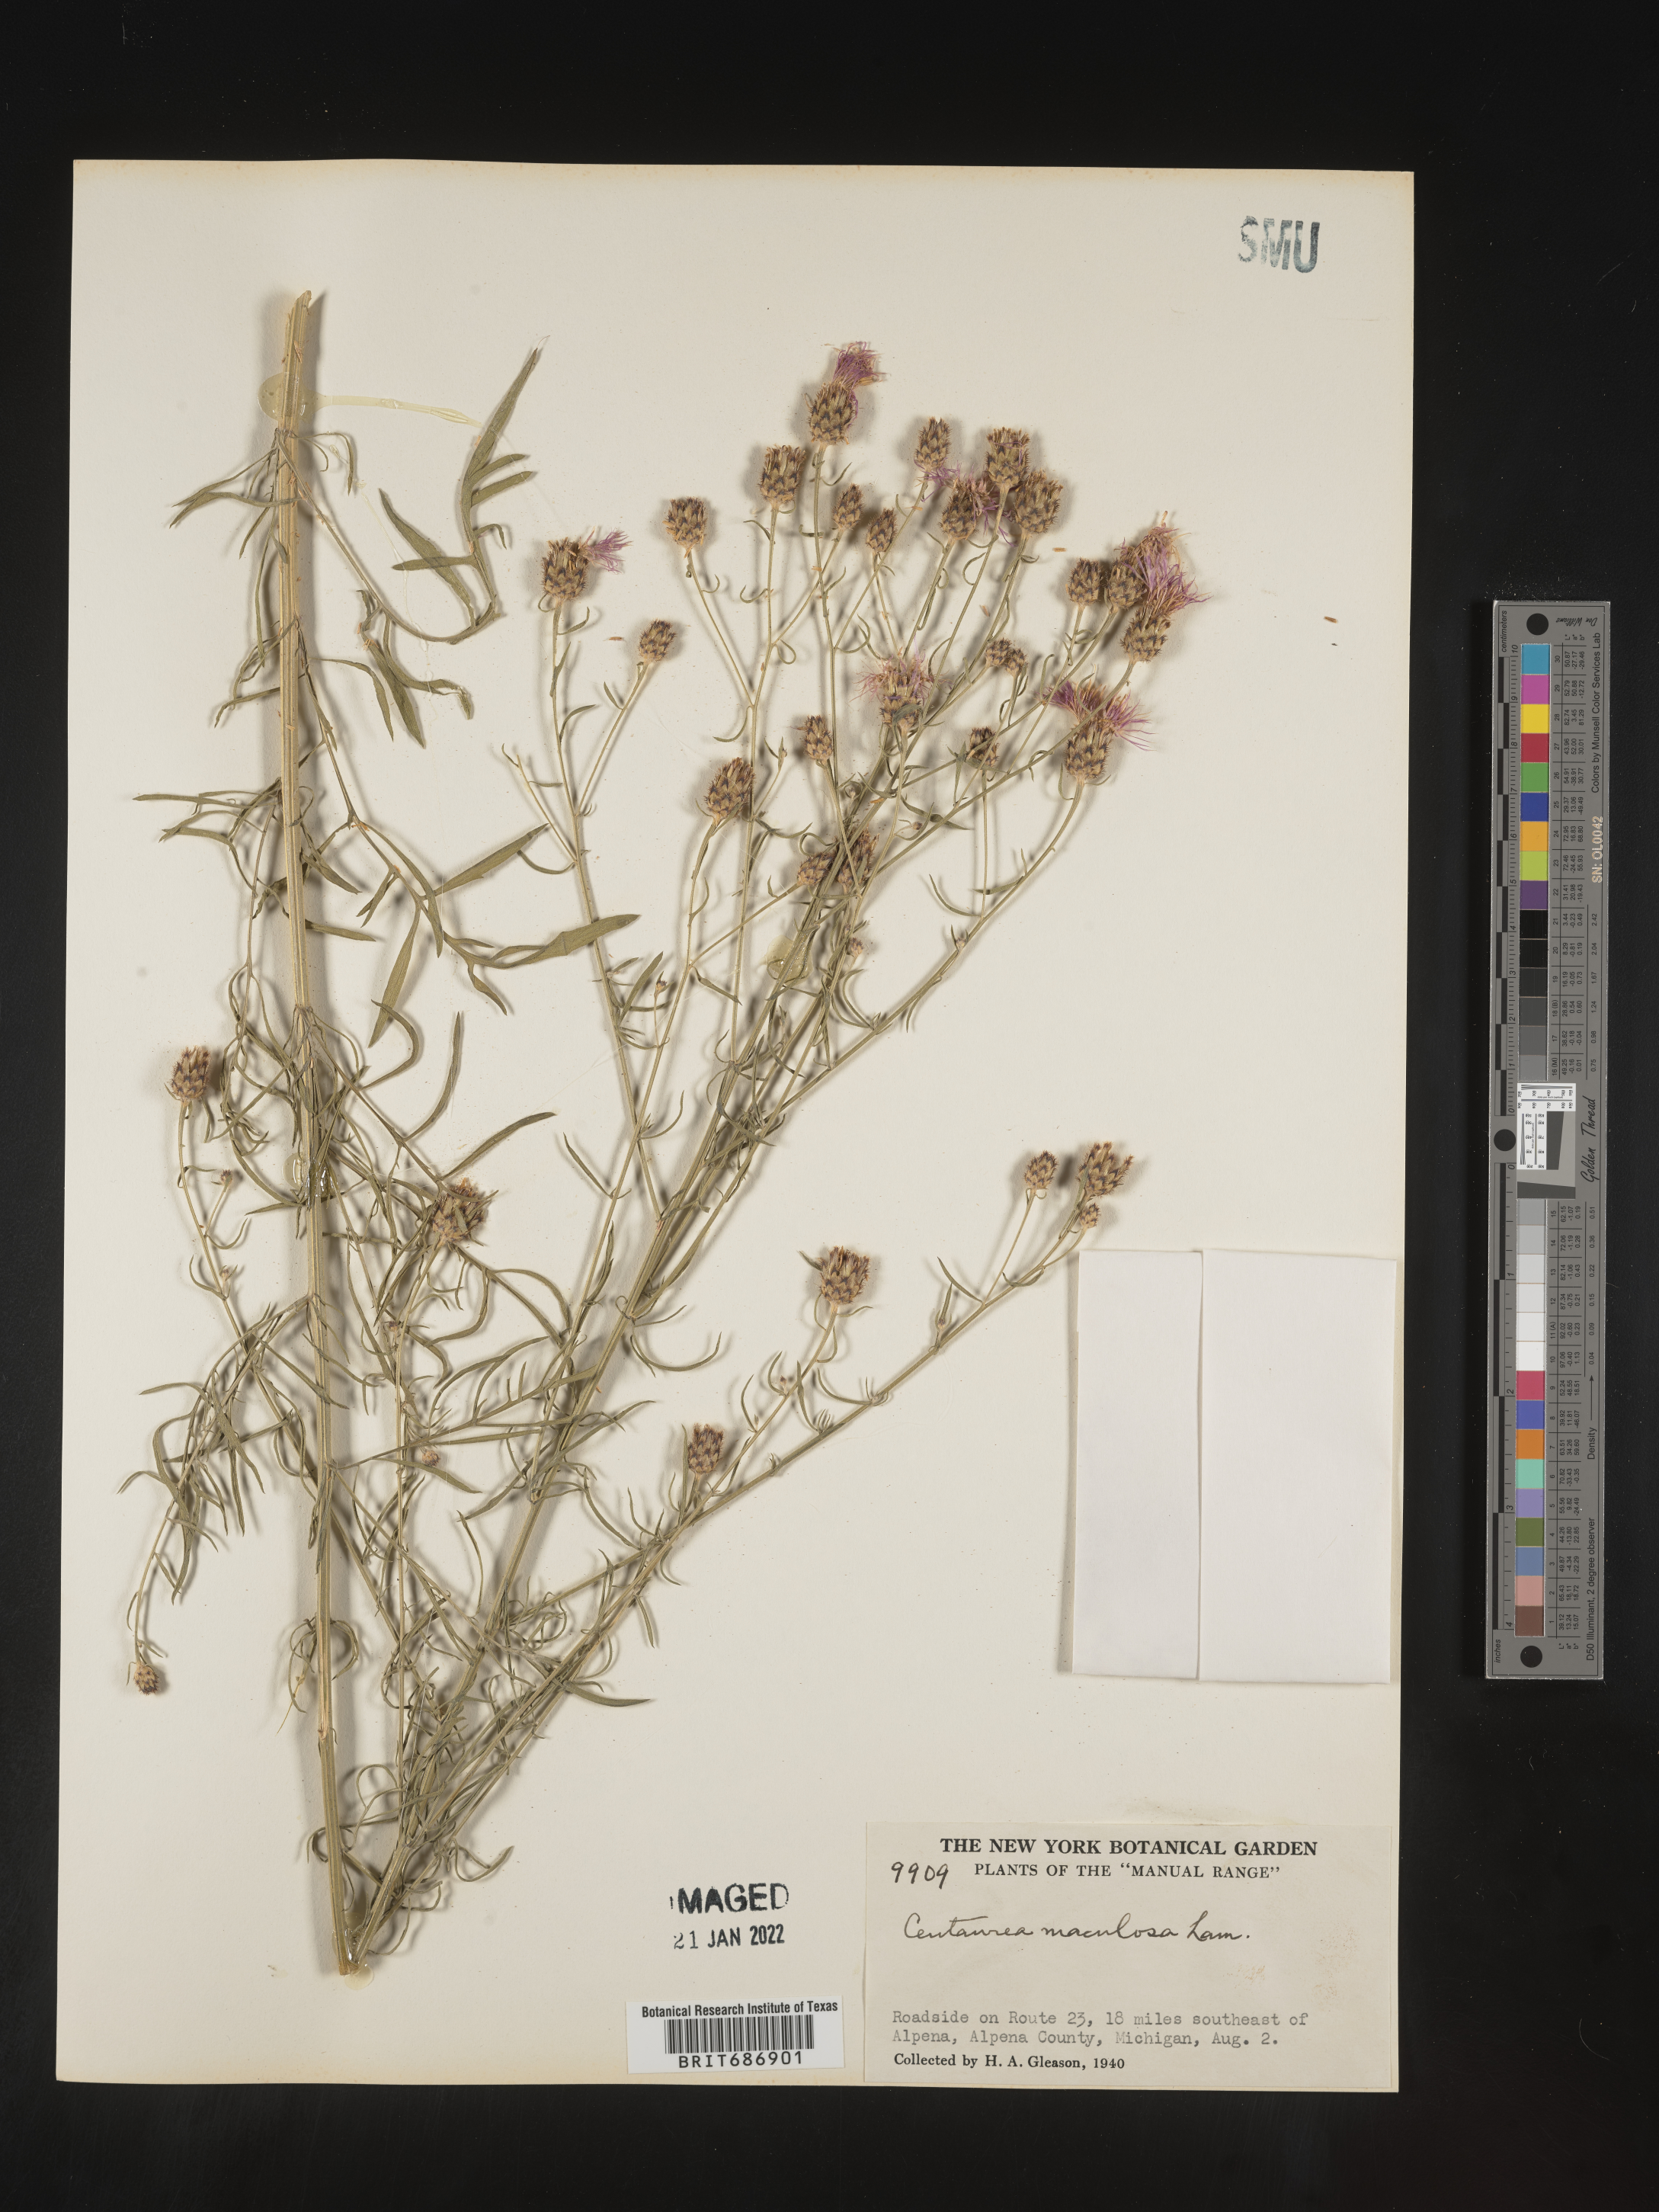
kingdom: Plantae
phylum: Tracheophyta
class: Magnoliopsida
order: Asterales
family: Asteraceae
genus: Centaurea
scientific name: Centaurea stoebe
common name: Spotted knapweed
